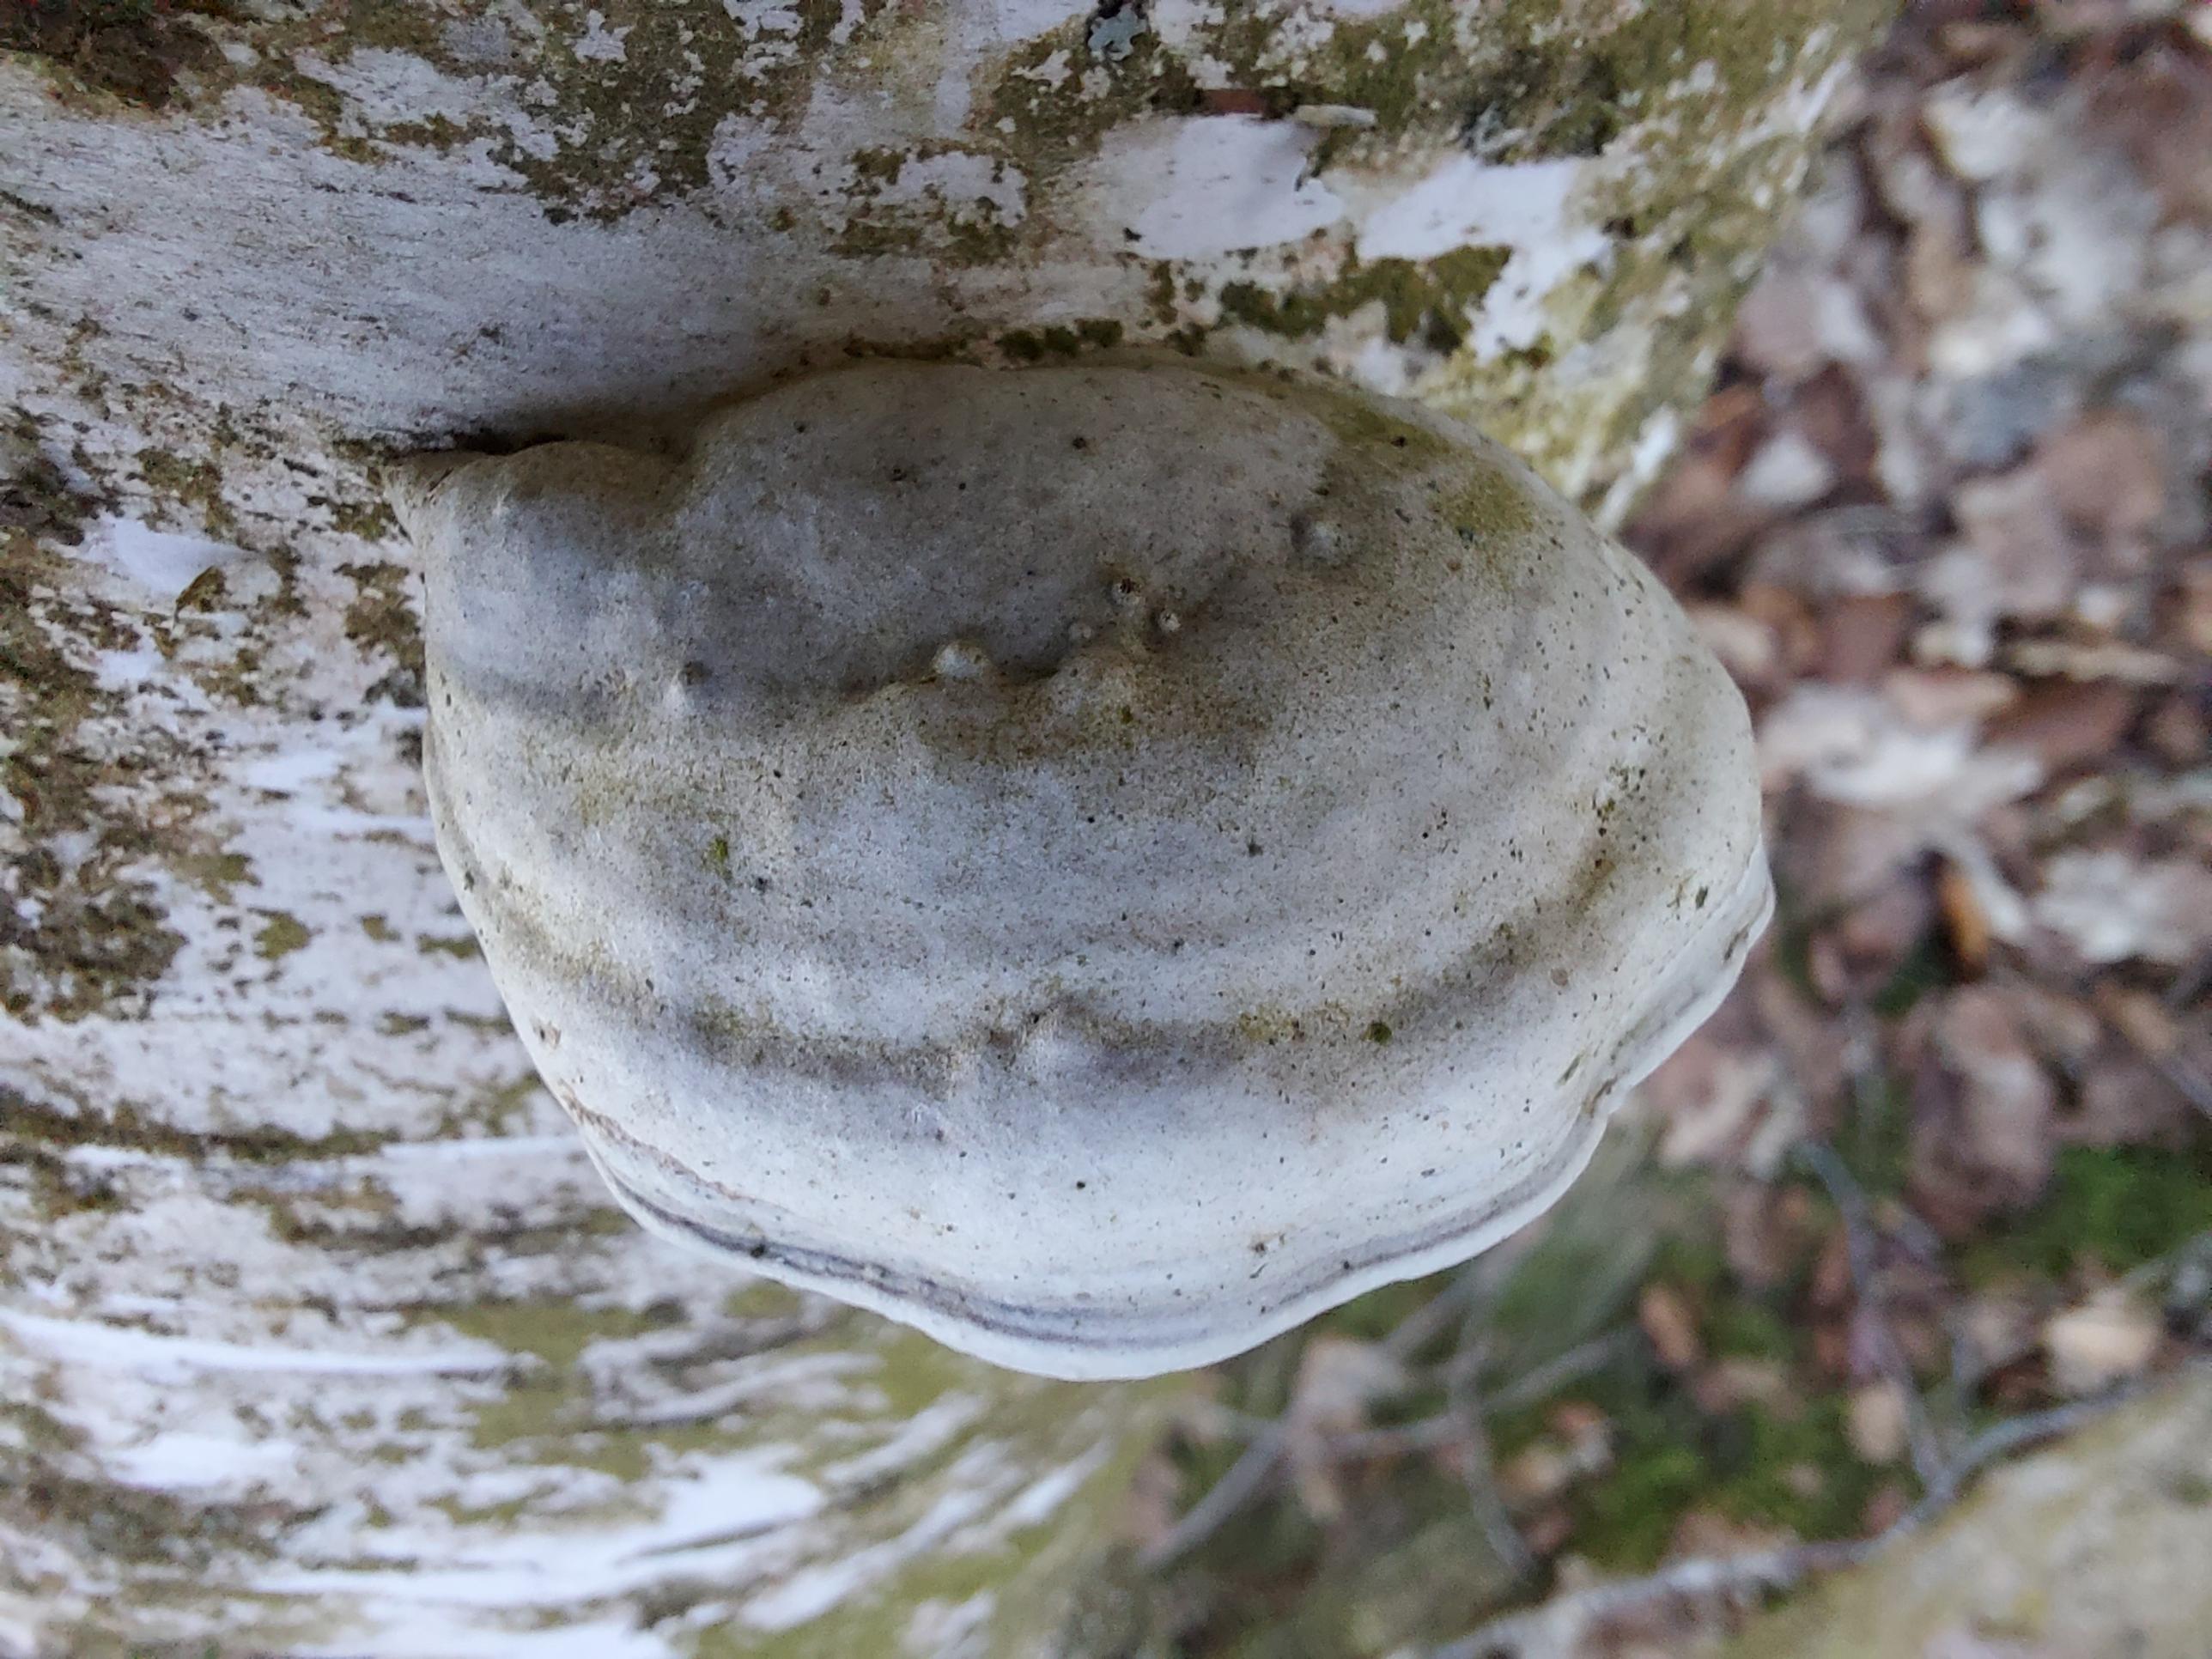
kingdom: Fungi
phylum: Basidiomycota
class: Agaricomycetes
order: Polyporales
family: Polyporaceae
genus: Fomes
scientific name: Fomes fomentarius
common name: tøndersvamp
